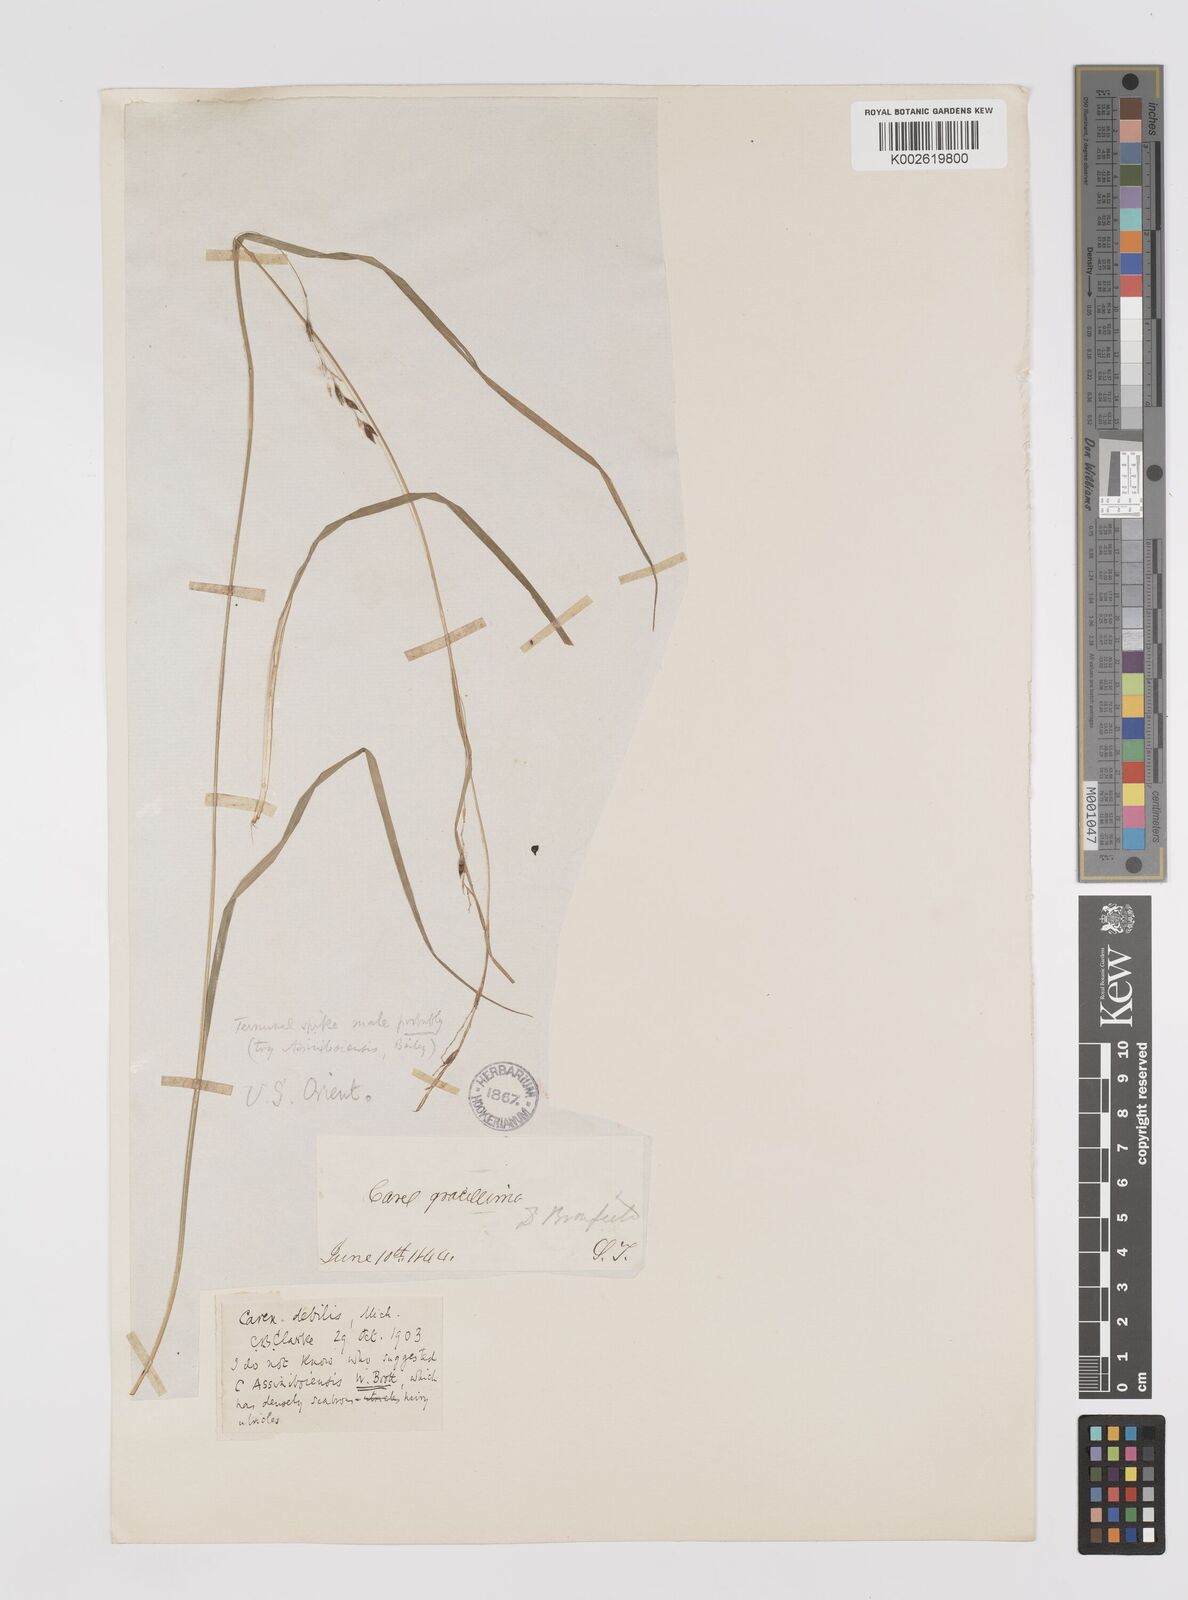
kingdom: Plantae
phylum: Tracheophyta
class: Liliopsida
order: Poales
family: Cyperaceae
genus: Carex
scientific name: Carex debilis
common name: White-edge sedge
